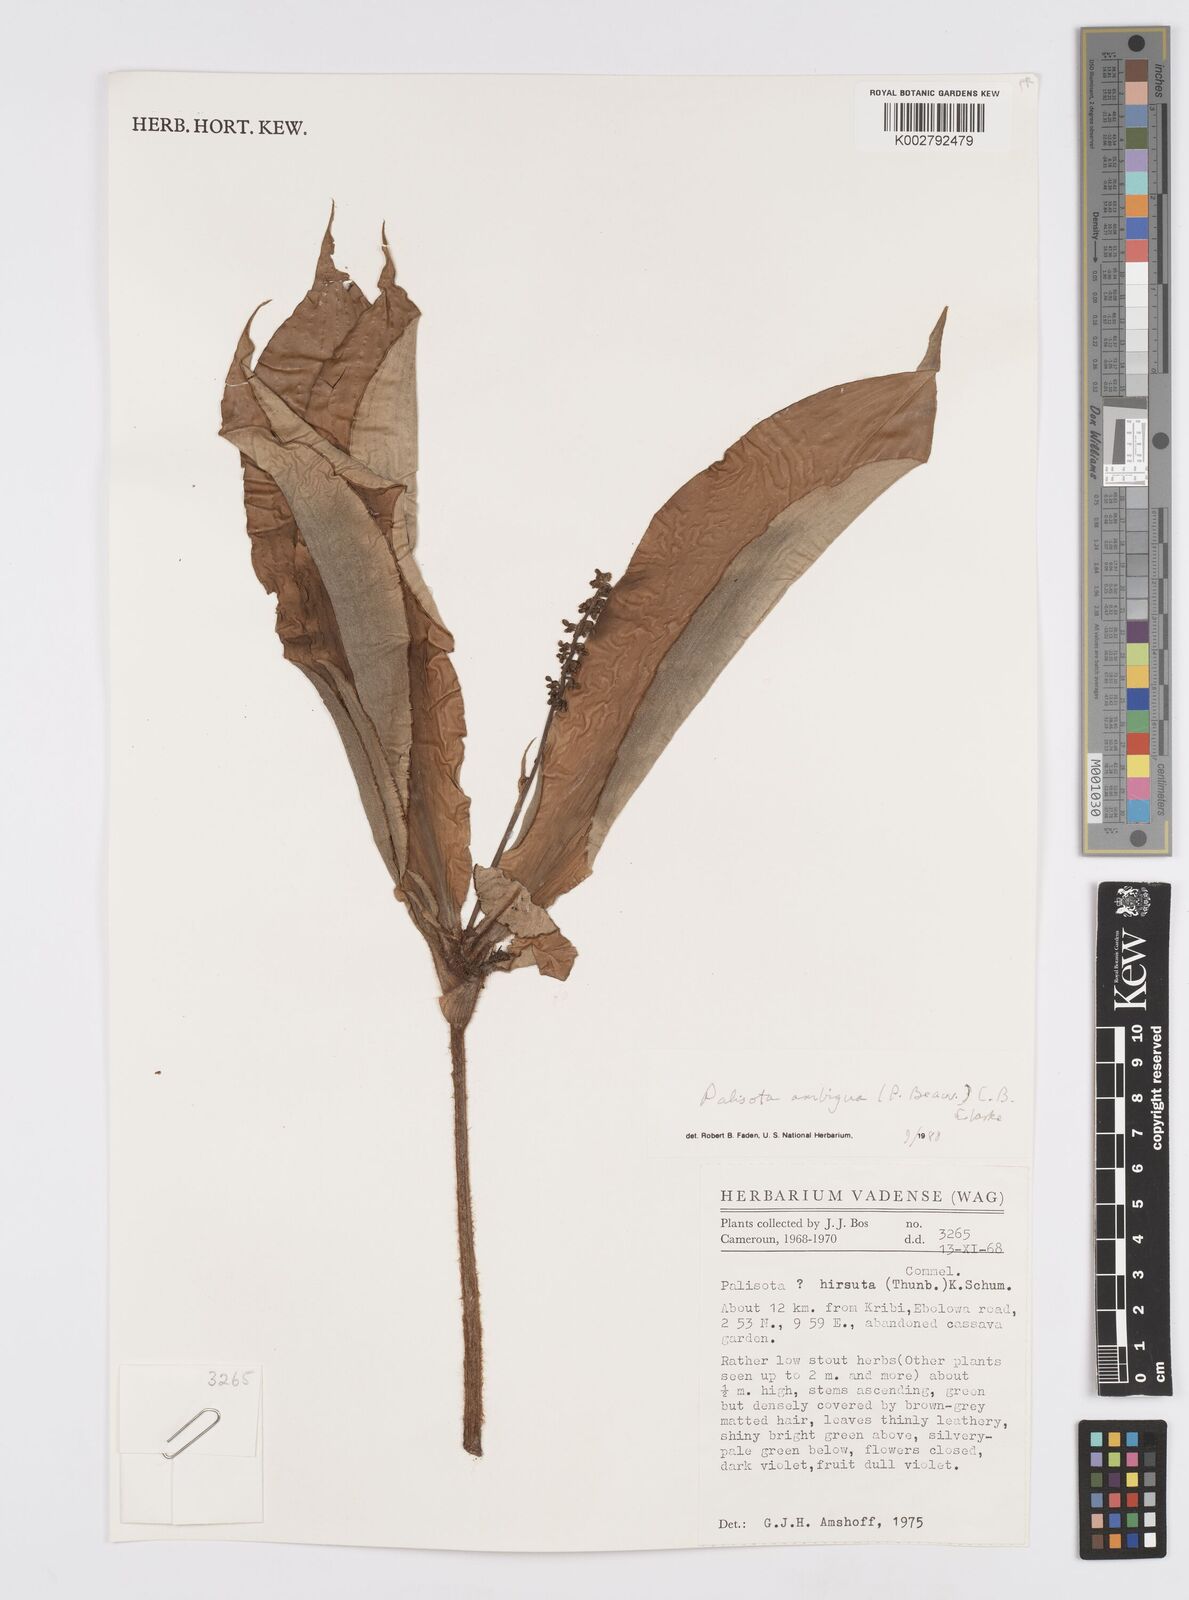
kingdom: Plantae
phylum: Tracheophyta
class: Liliopsida
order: Commelinales
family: Commelinaceae
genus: Palisota
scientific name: Palisota ambigua
